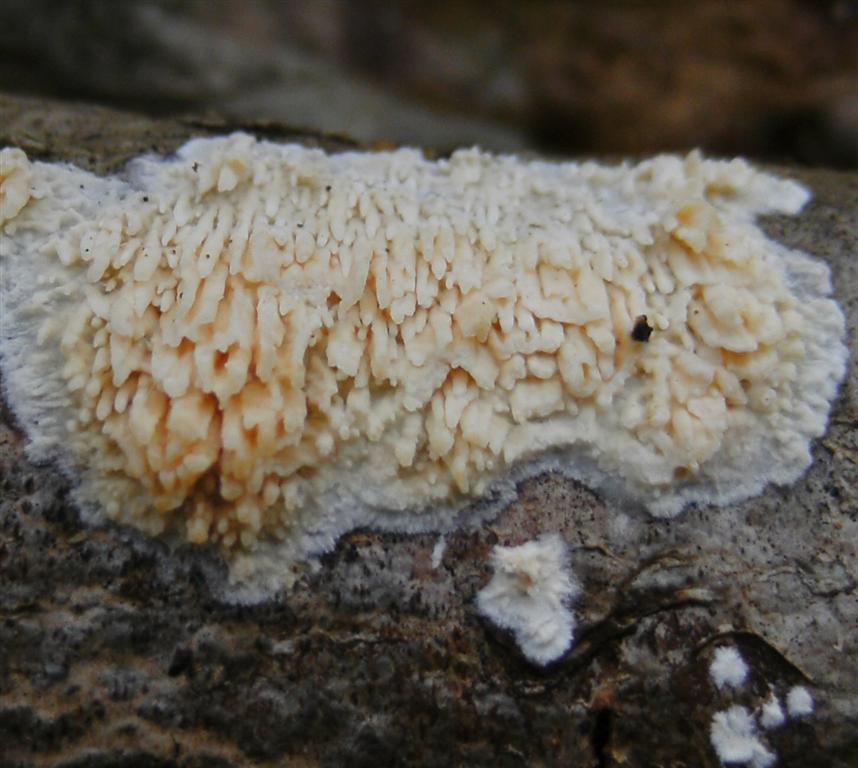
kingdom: Fungi
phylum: Basidiomycota
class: Agaricomycetes
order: Hymenochaetales
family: Schizoporaceae
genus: Xylodon
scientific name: Xylodon radula
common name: grovtandet kalkskind
